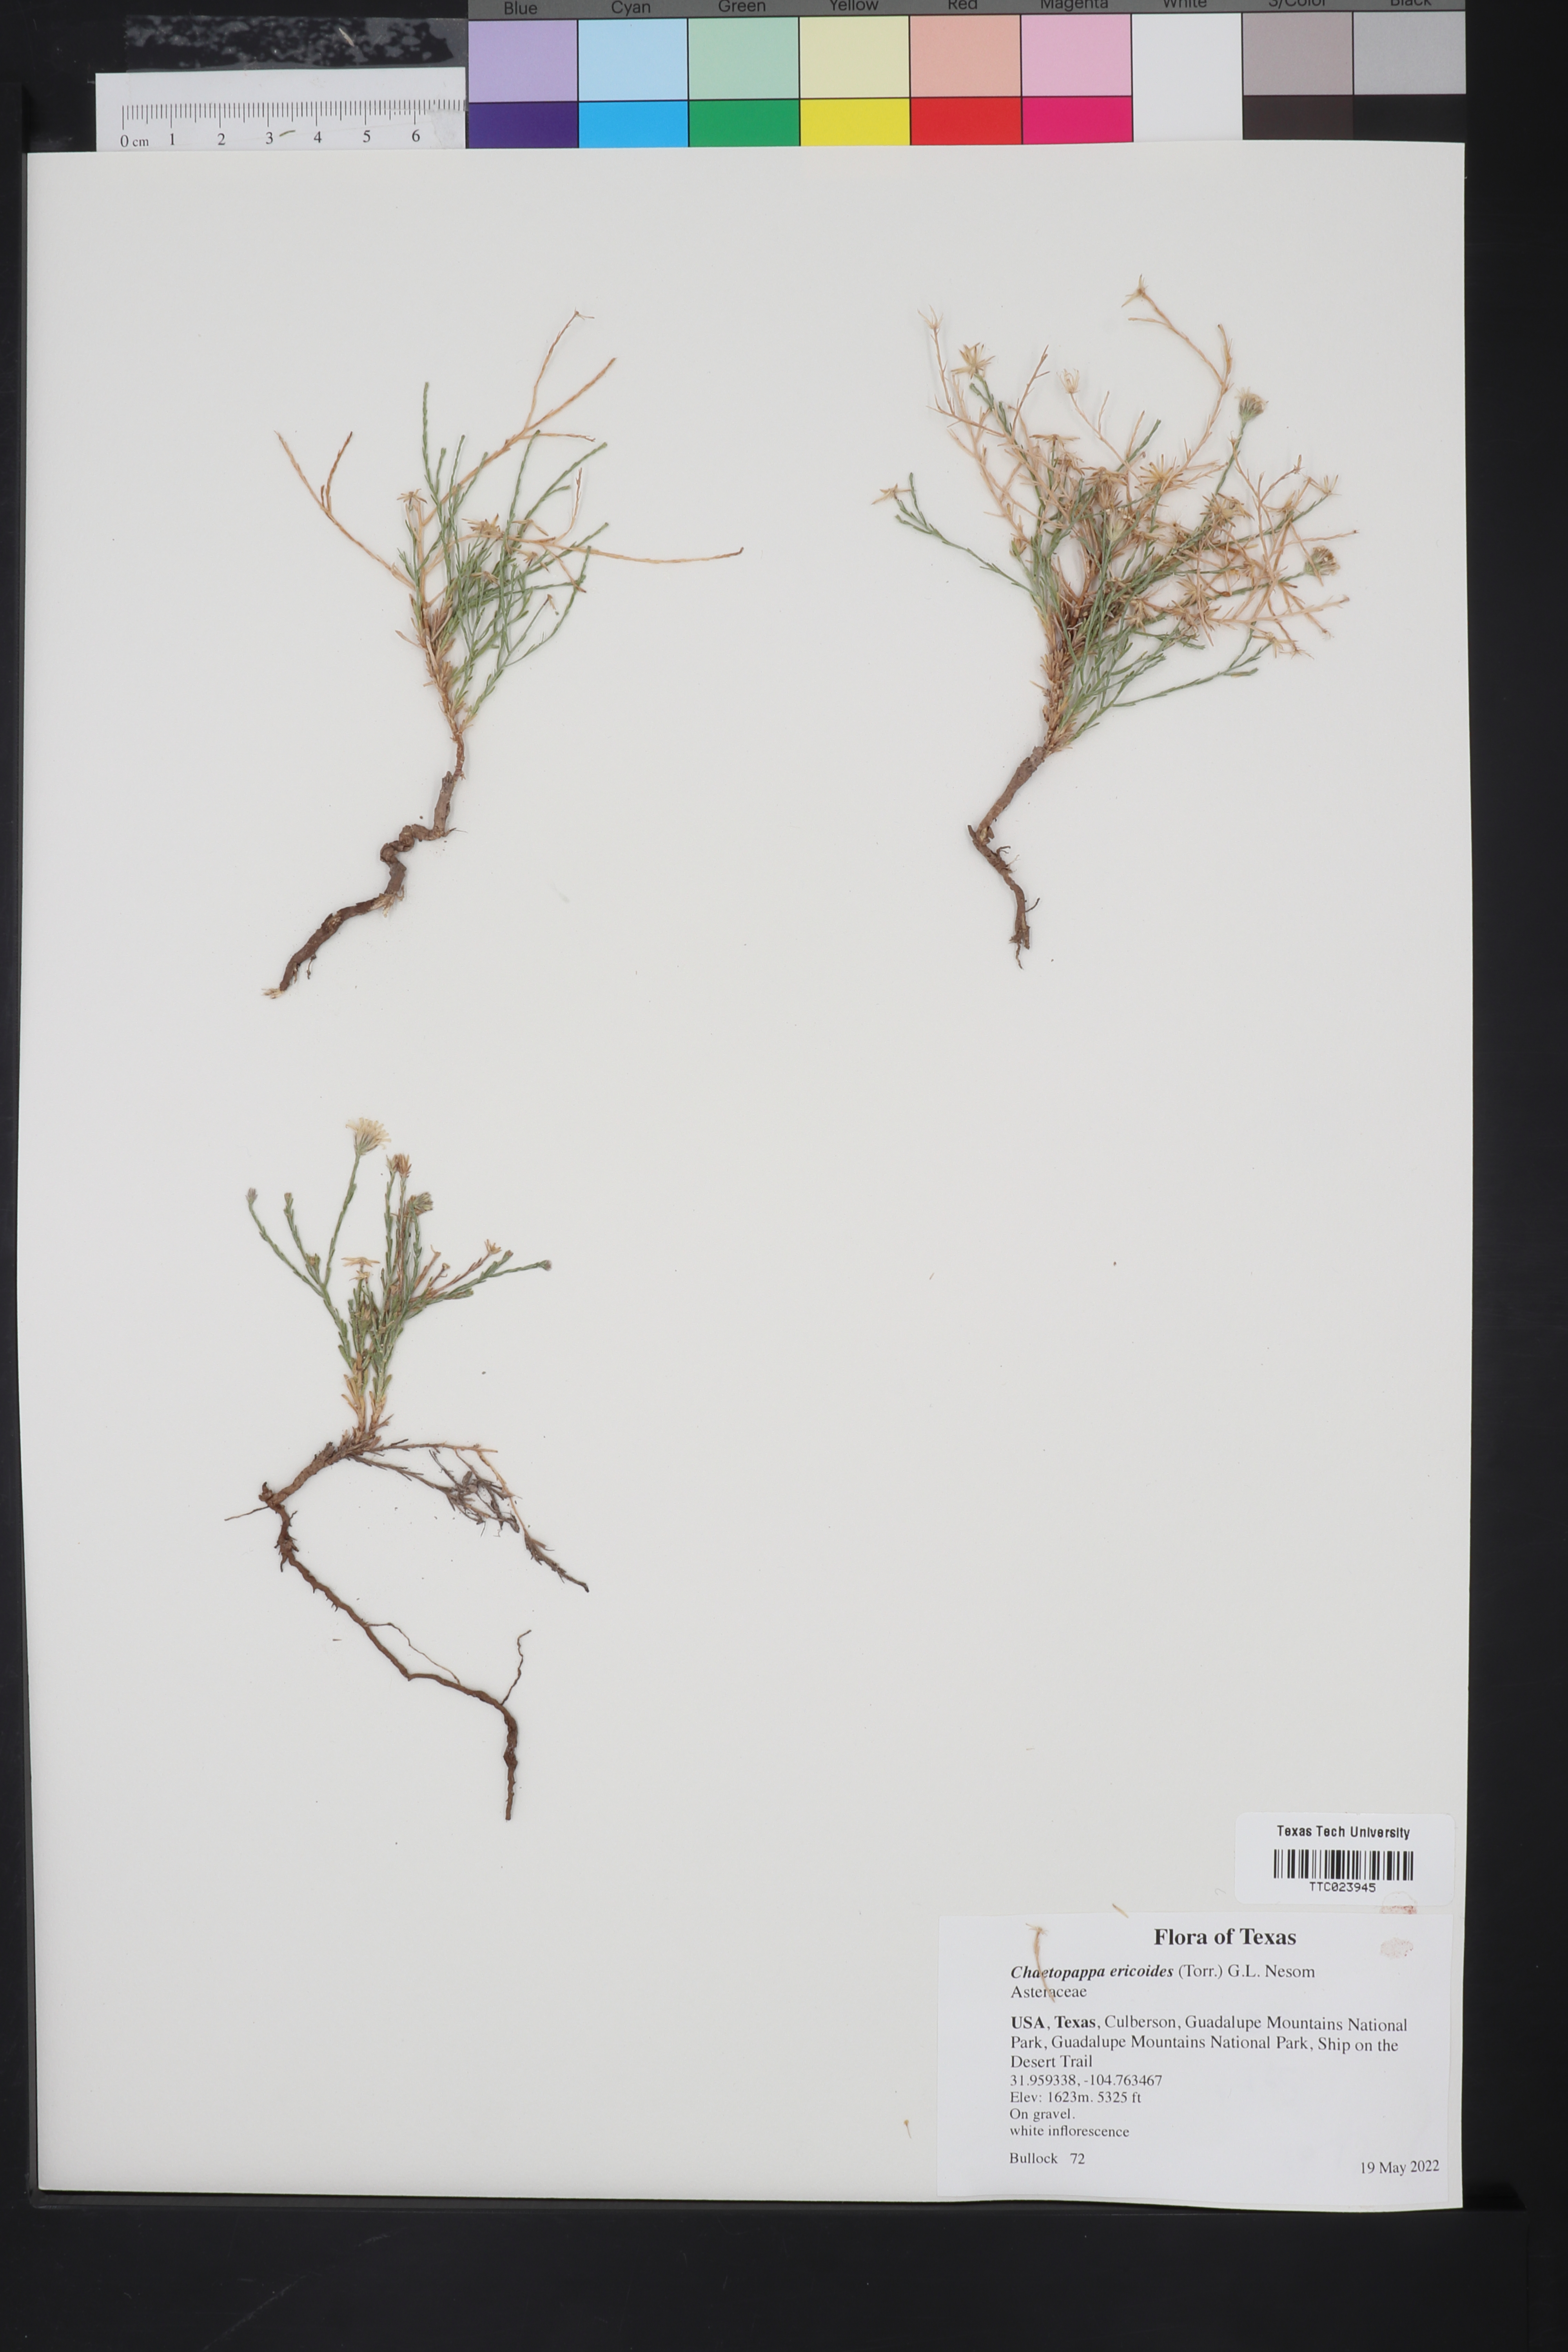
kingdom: Plantae
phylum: Tracheophyta
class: Magnoliopsida
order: Asterales
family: Asteraceae
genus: Chaetopappa
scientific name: Chaetopappa ericoides
